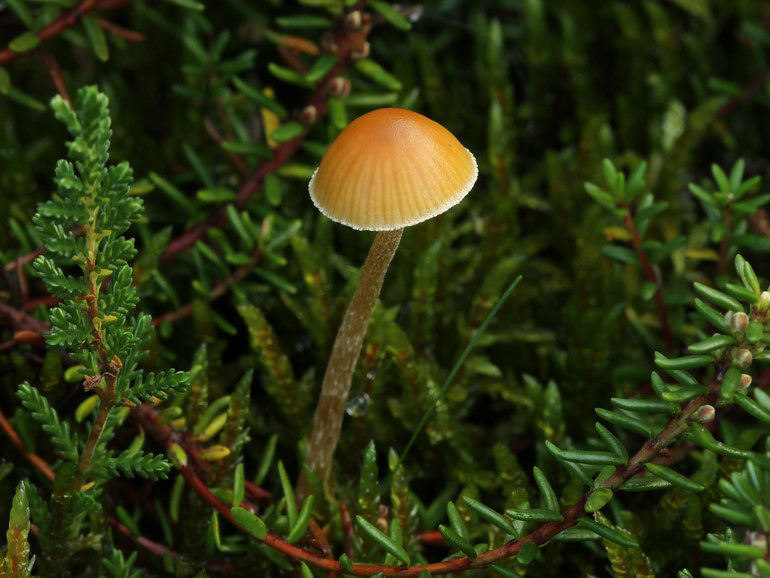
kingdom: Fungi
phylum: Basidiomycota
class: Agaricomycetes
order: Agaricales
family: Hymenogastraceae
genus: Galerina
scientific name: Galerina pumila
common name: honninggul hjelmhat
